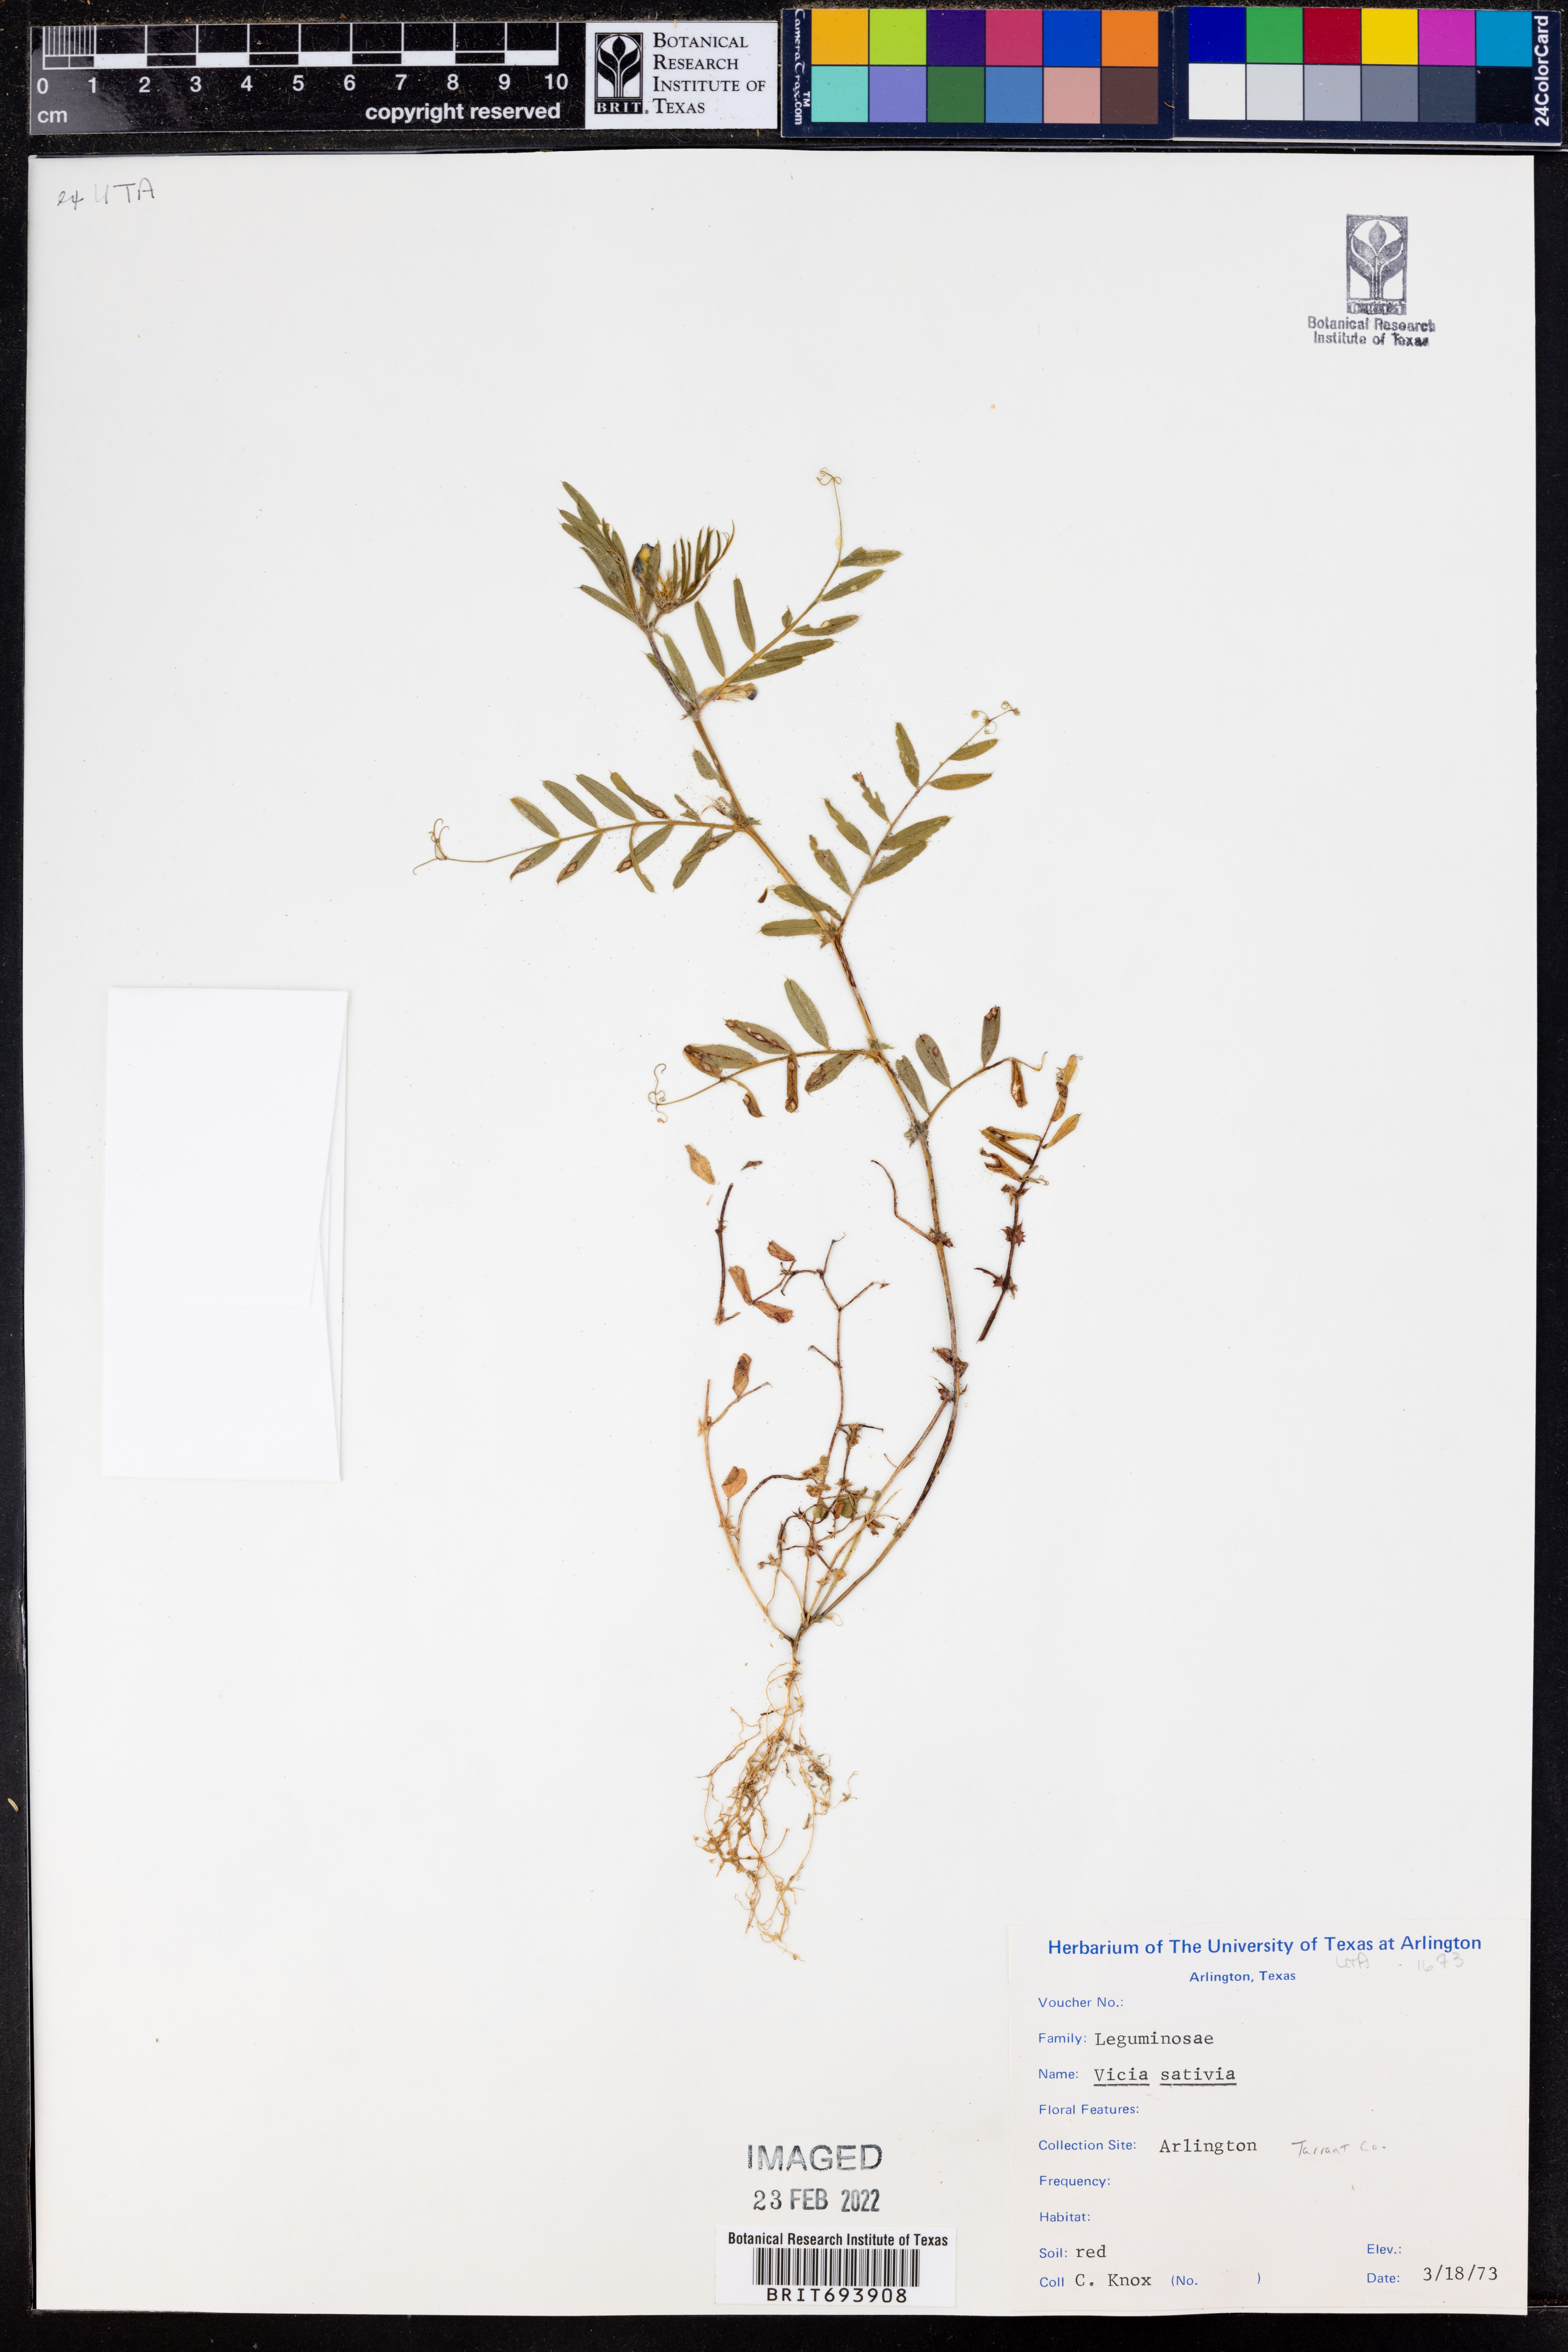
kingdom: Plantae
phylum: Tracheophyta
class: Magnoliopsida
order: Fabales
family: Fabaceae
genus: Vicia
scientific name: Vicia sativa
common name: Garden vetch
